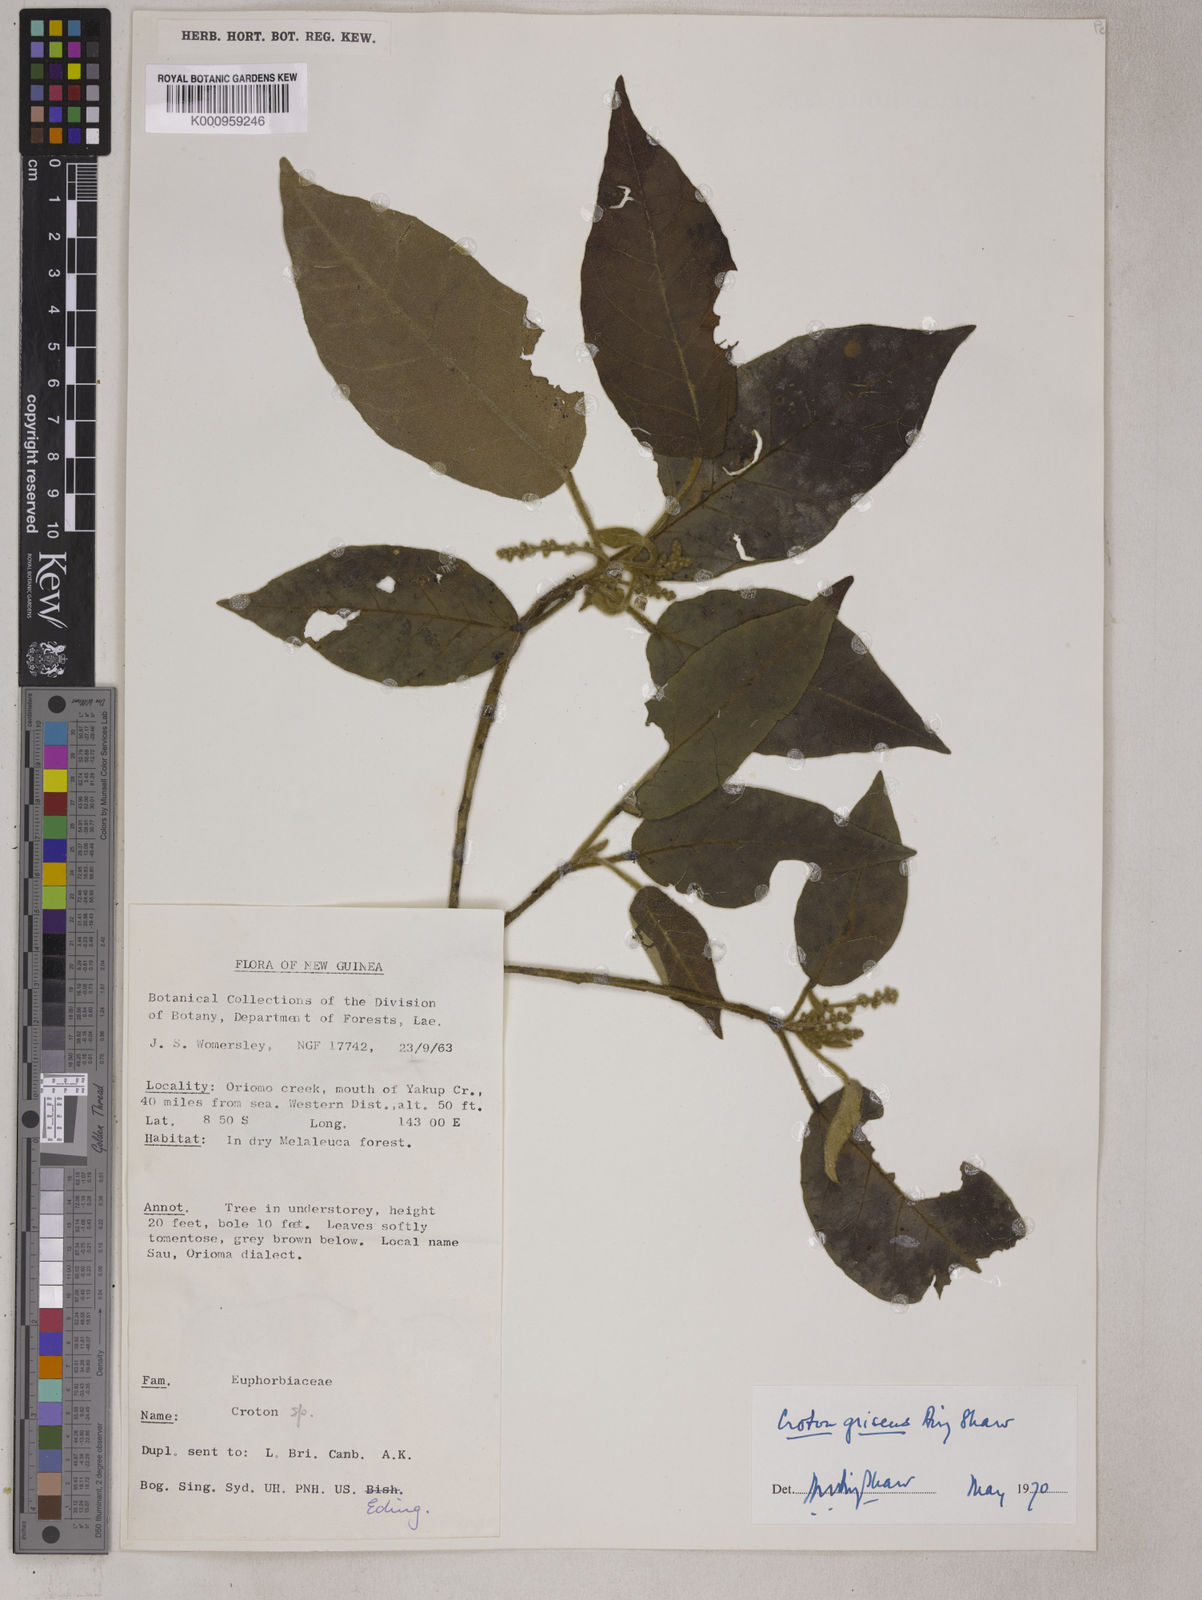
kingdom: Plantae
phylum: Tracheophyta
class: Magnoliopsida
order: Malpighiales
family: Euphorbiaceae
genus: Croton
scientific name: Croton griseus
